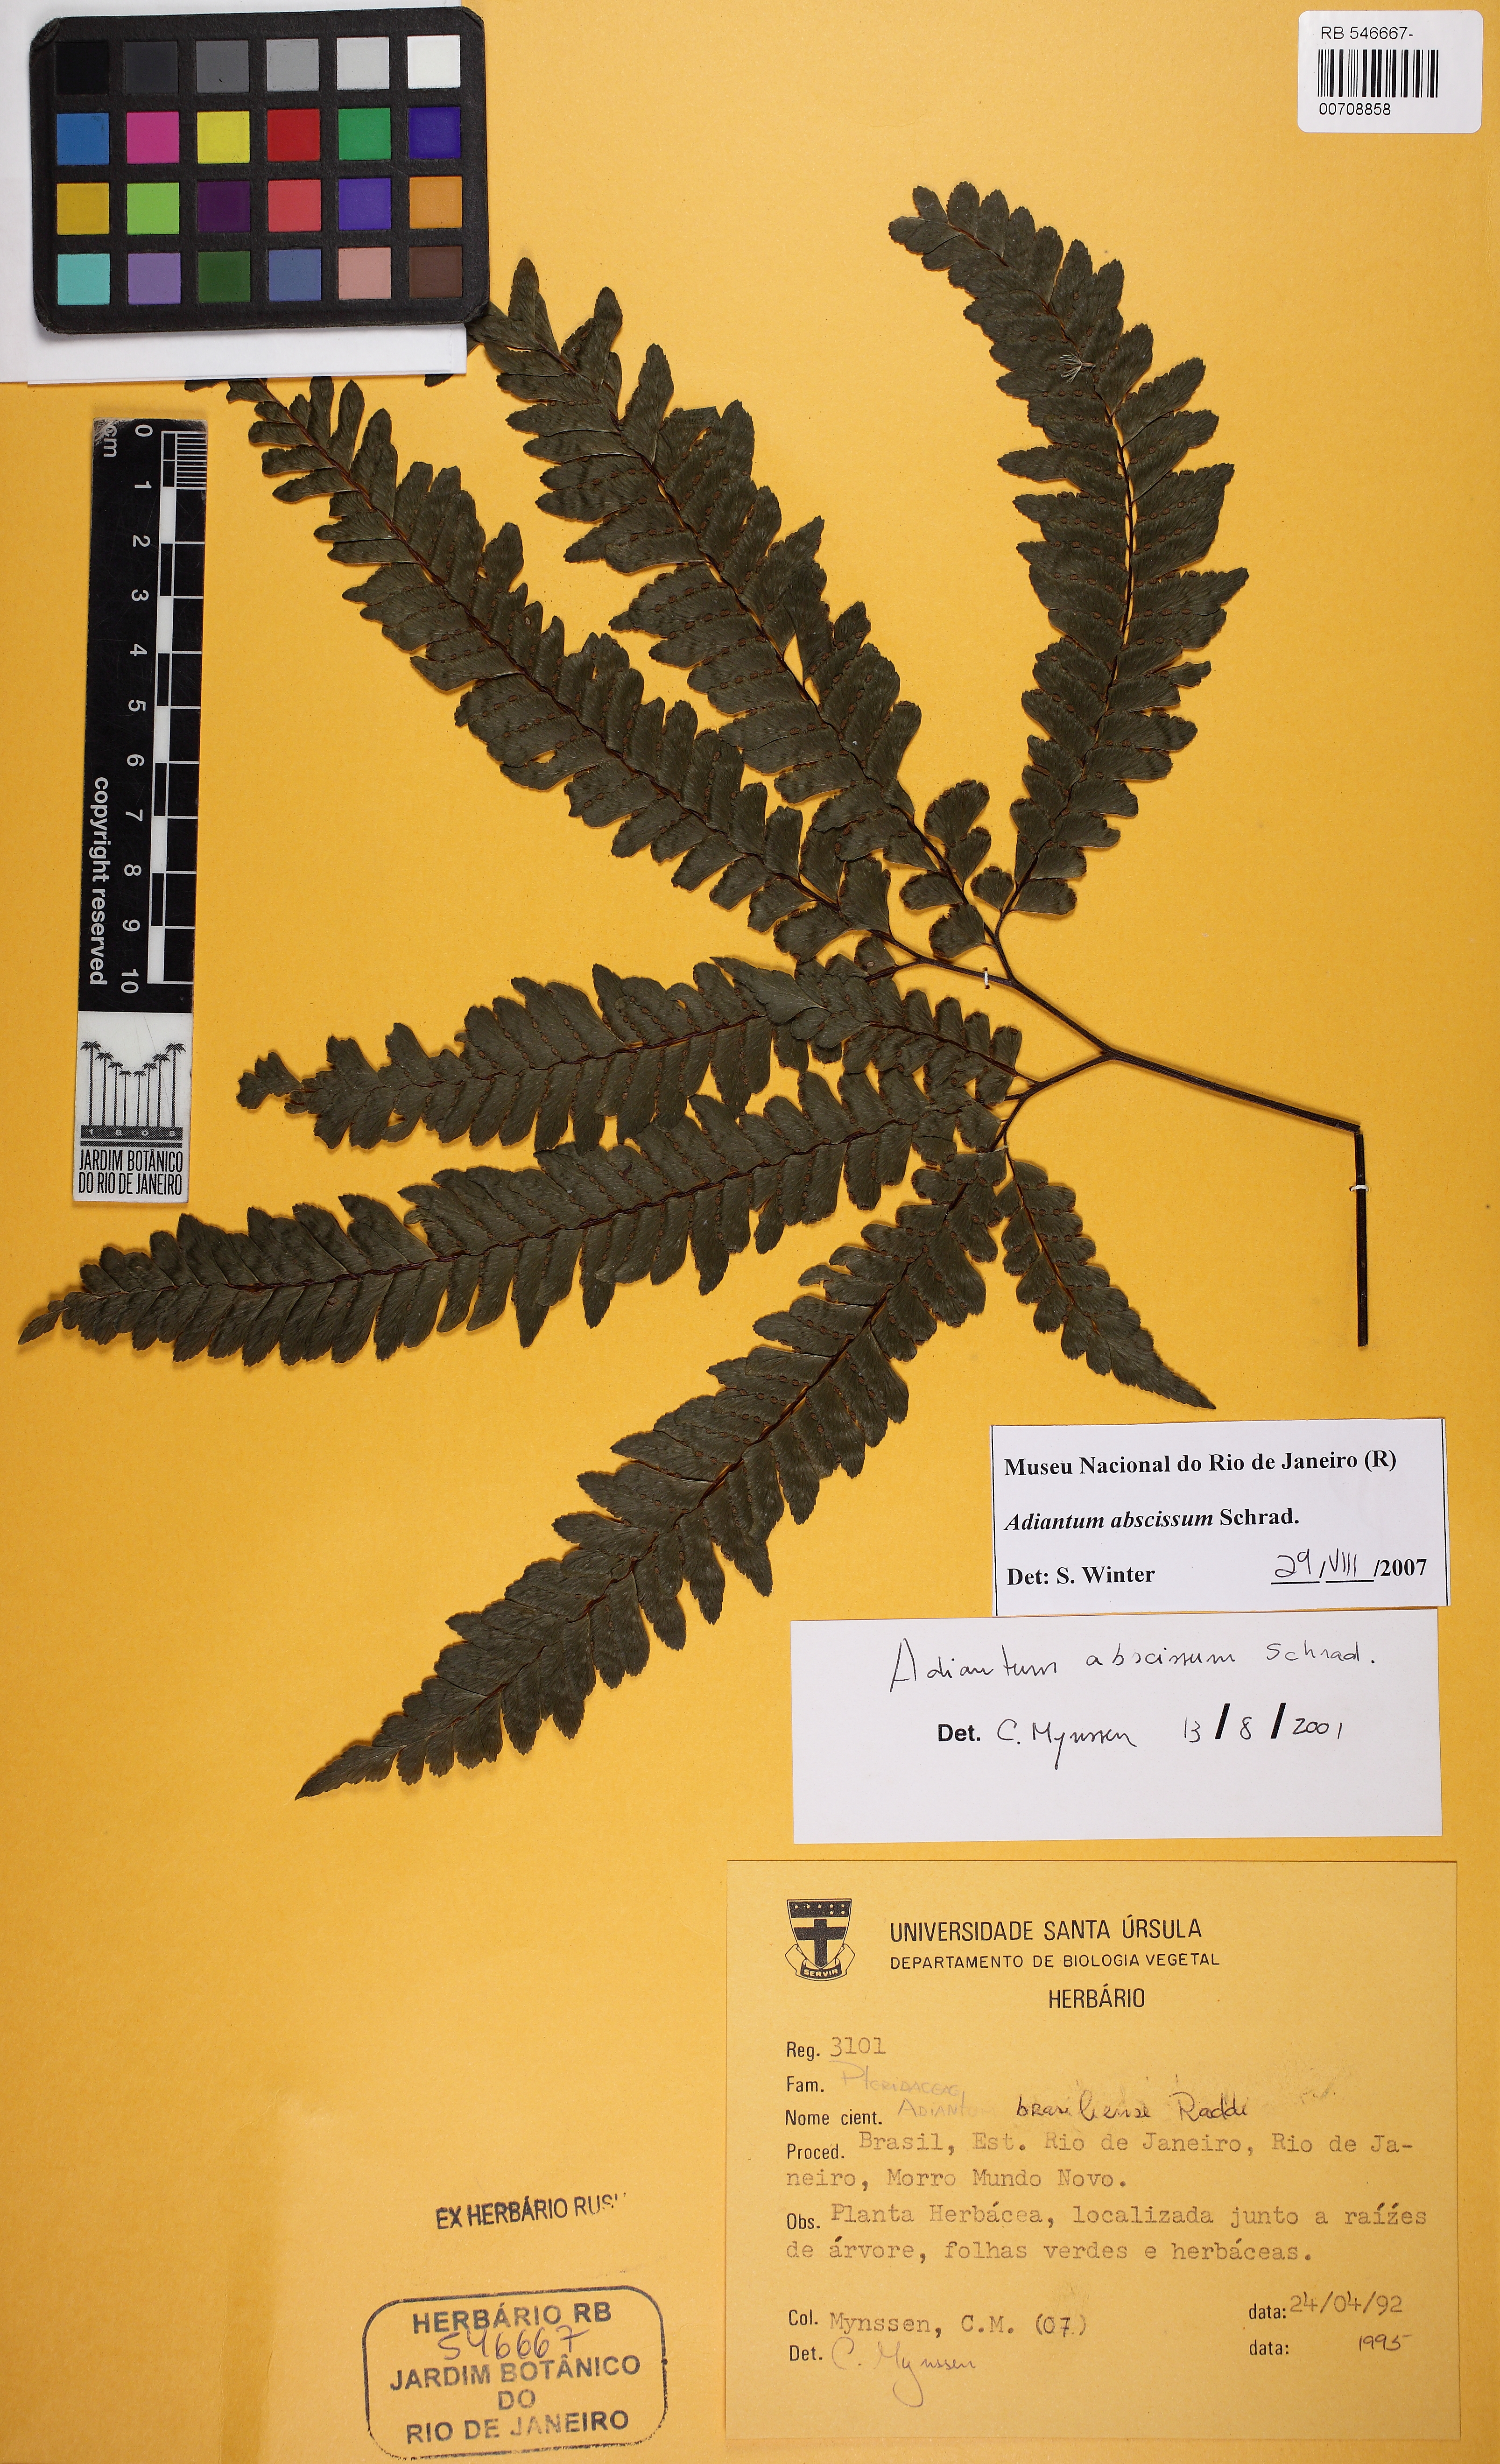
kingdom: Plantae
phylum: Tracheophyta
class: Polypodiopsida
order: Polypodiales
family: Pteridaceae
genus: Adiantum
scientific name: Adiantum abscissum
